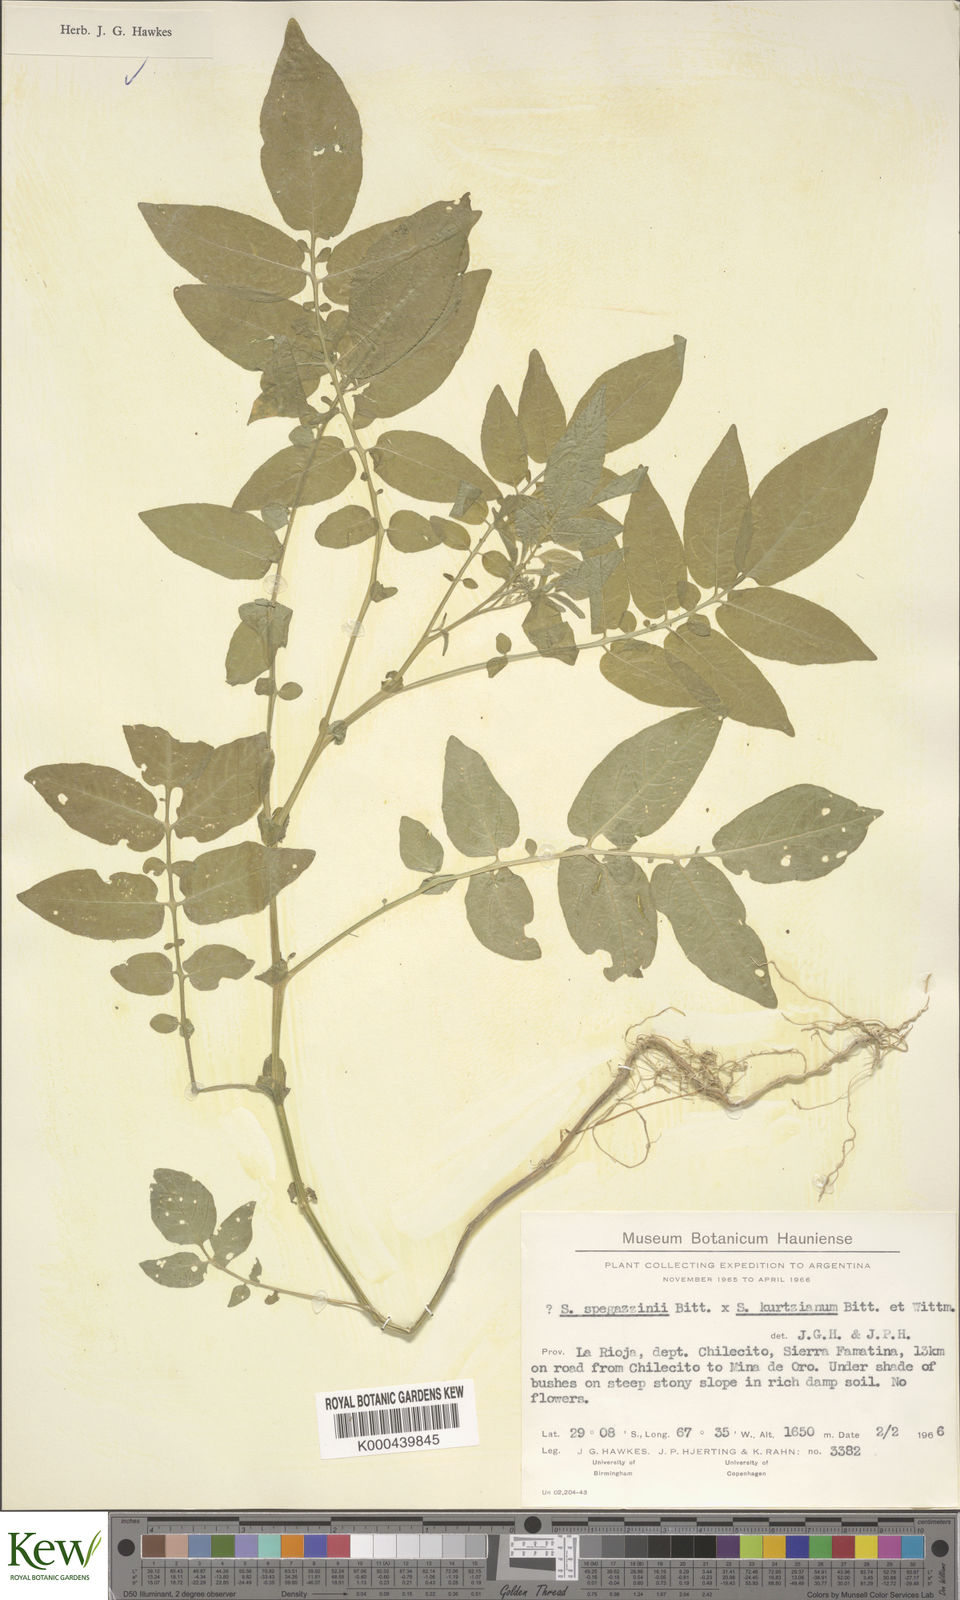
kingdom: Plantae
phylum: Tracheophyta
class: Magnoliopsida
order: Solanales
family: Solanaceae
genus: Solanum
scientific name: Solanum brevicaule
